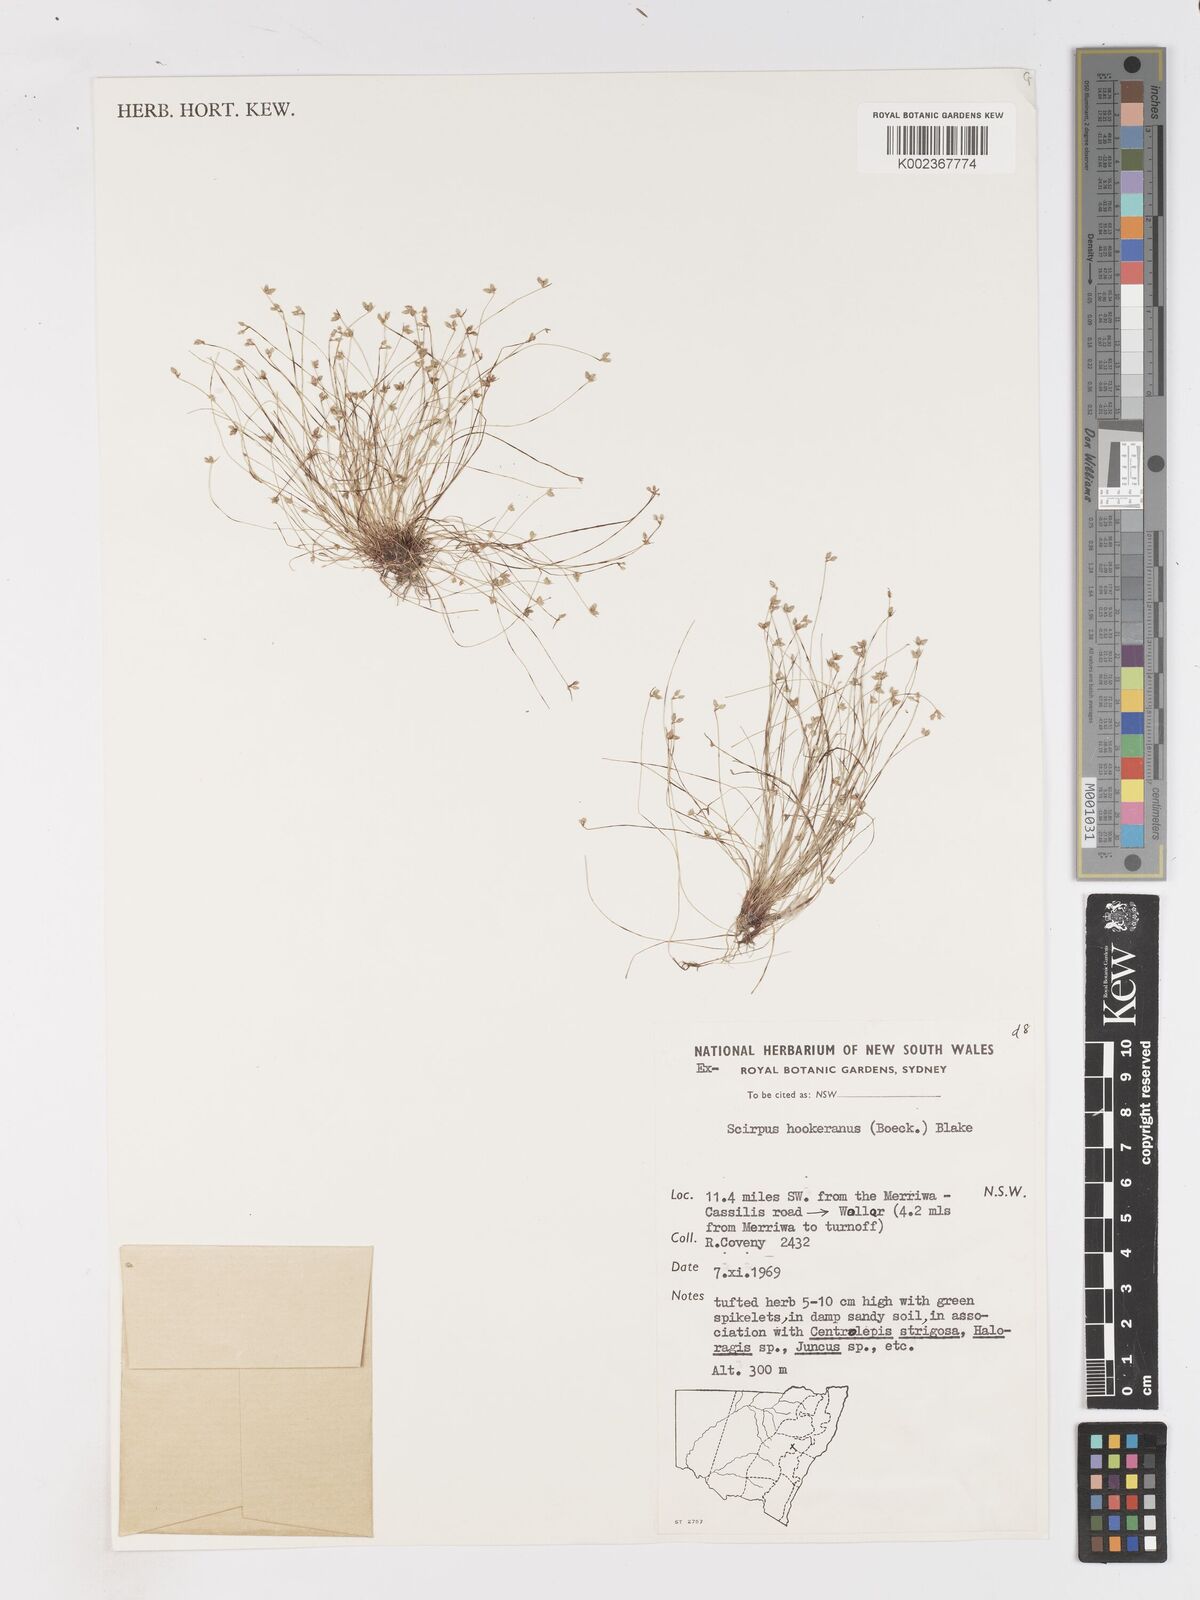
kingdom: Plantae
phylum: Tracheophyta
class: Liliopsida
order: Poales
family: Cyperaceae
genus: Isolepis
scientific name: Isolepis multicaulis
